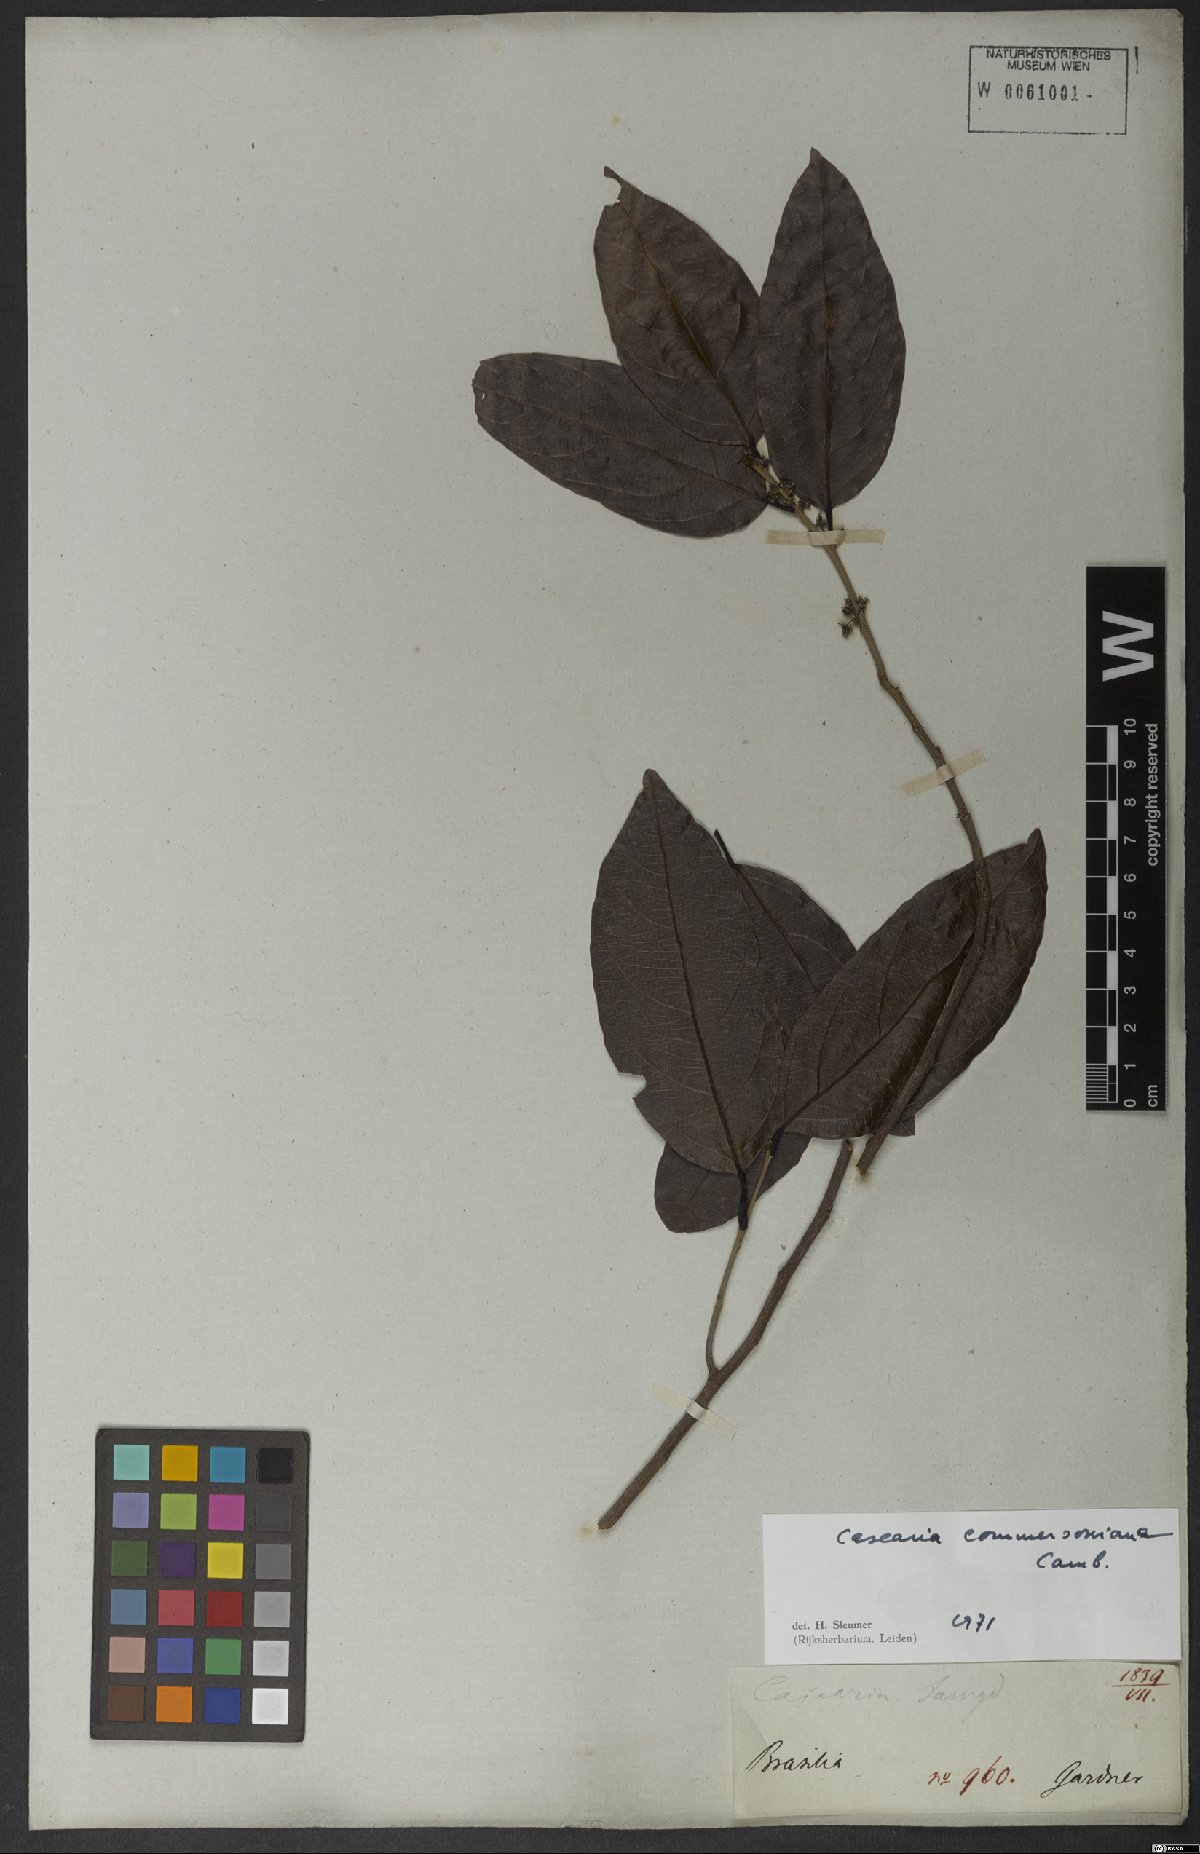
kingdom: Plantae
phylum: Tracheophyta
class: Magnoliopsida
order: Malpighiales
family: Salicaceae
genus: Piparea
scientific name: Piparea dentata
